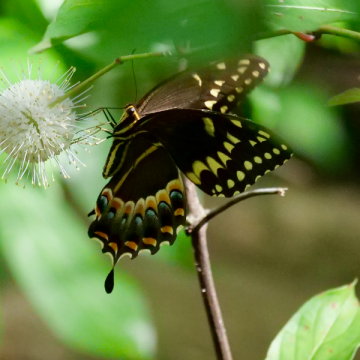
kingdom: Animalia
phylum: Arthropoda
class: Insecta
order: Lepidoptera
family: Papilionidae
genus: Pterourus
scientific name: Pterourus palamedes
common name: Palamedes Swallowtail
